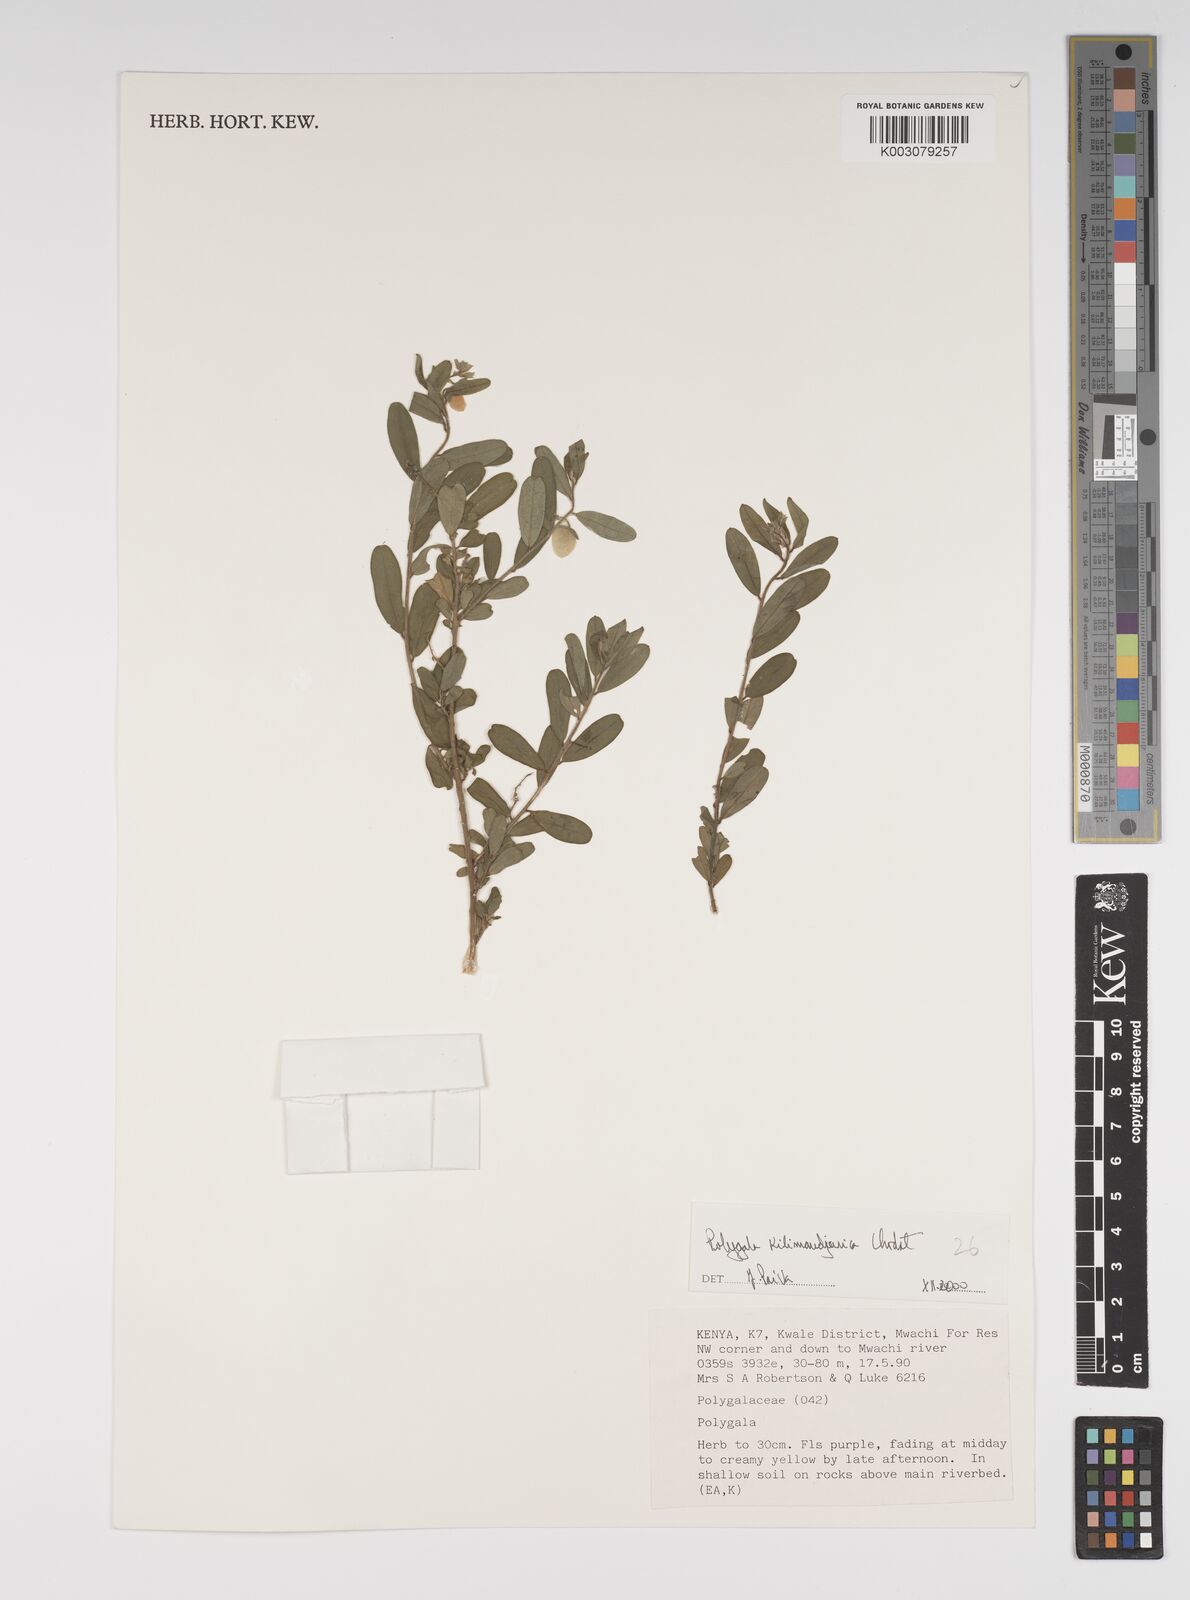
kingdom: Plantae
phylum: Tracheophyta
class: Magnoliopsida
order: Fabales
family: Polygalaceae
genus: Polygala
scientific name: Polygala kilimandjarica
